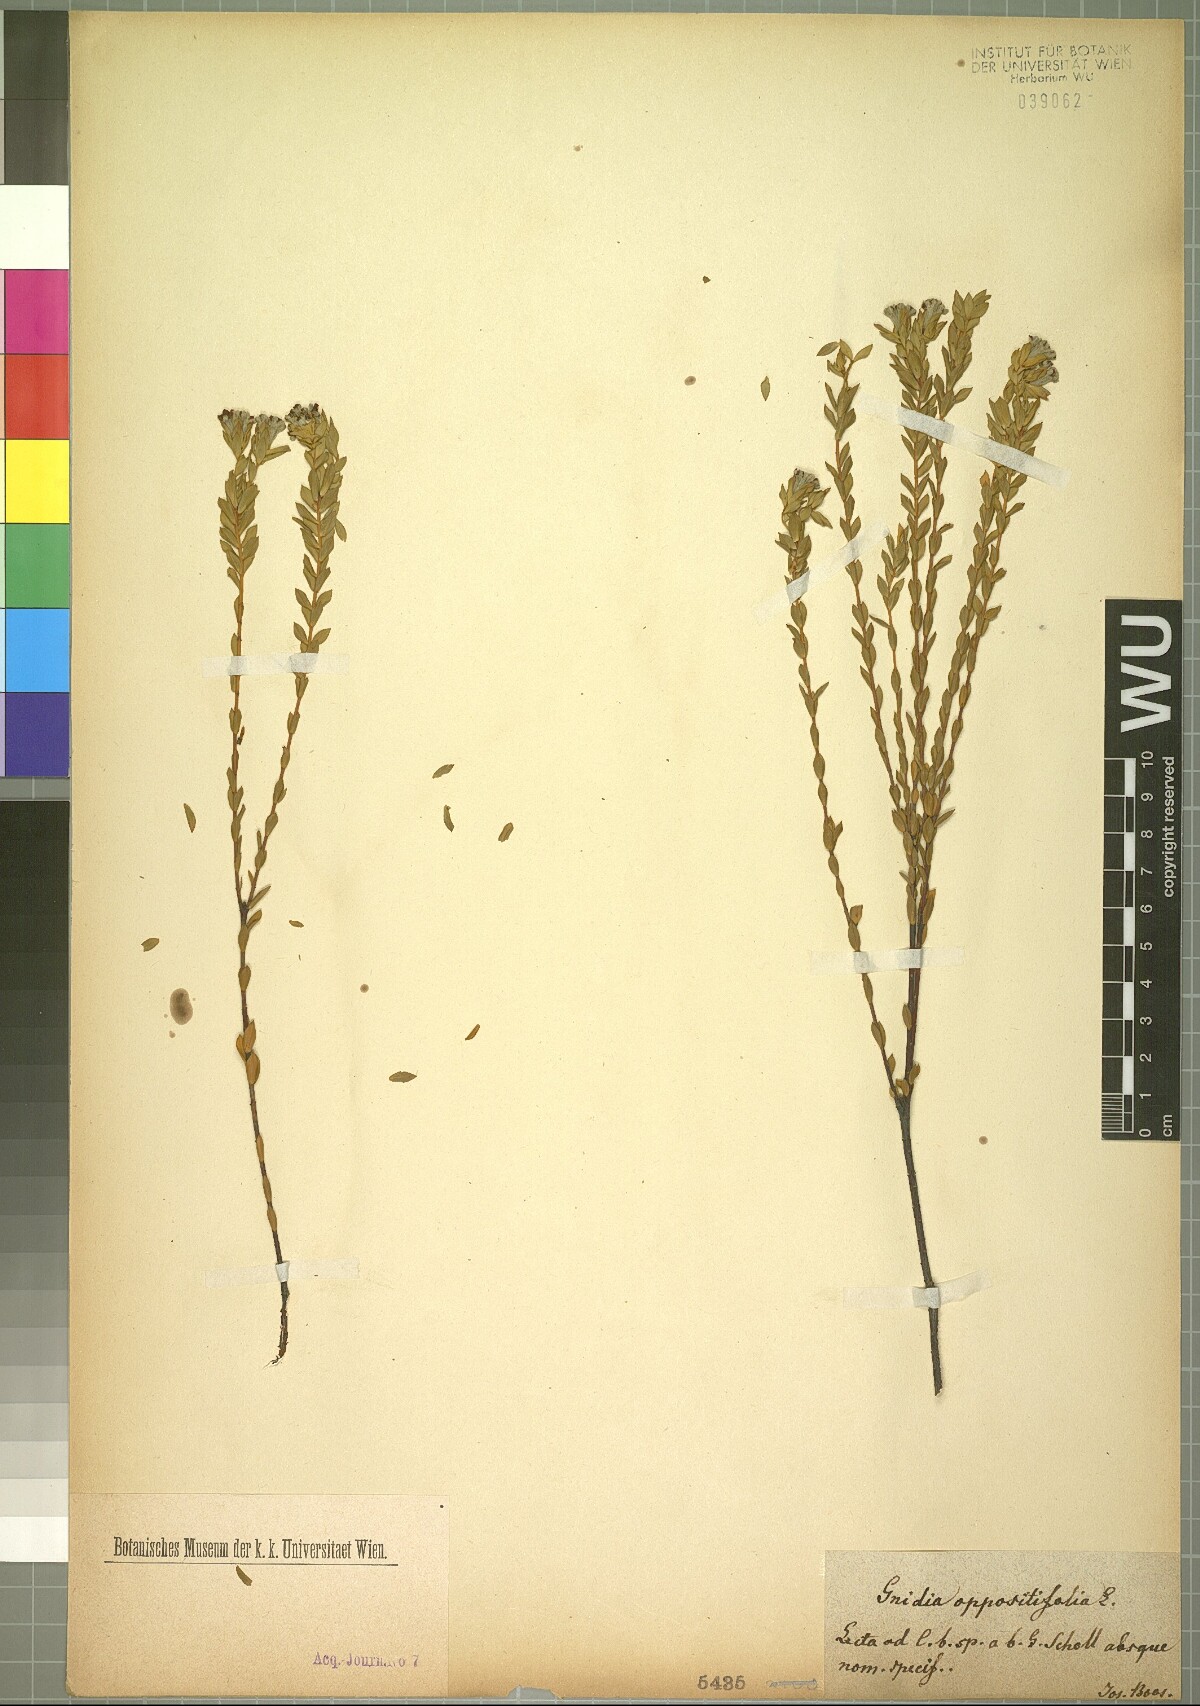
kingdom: Plantae
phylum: Tracheophyta
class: Magnoliopsida
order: Malvales
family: Thymelaeaceae
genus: Gnidia
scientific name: Gnidia oppositifolia
